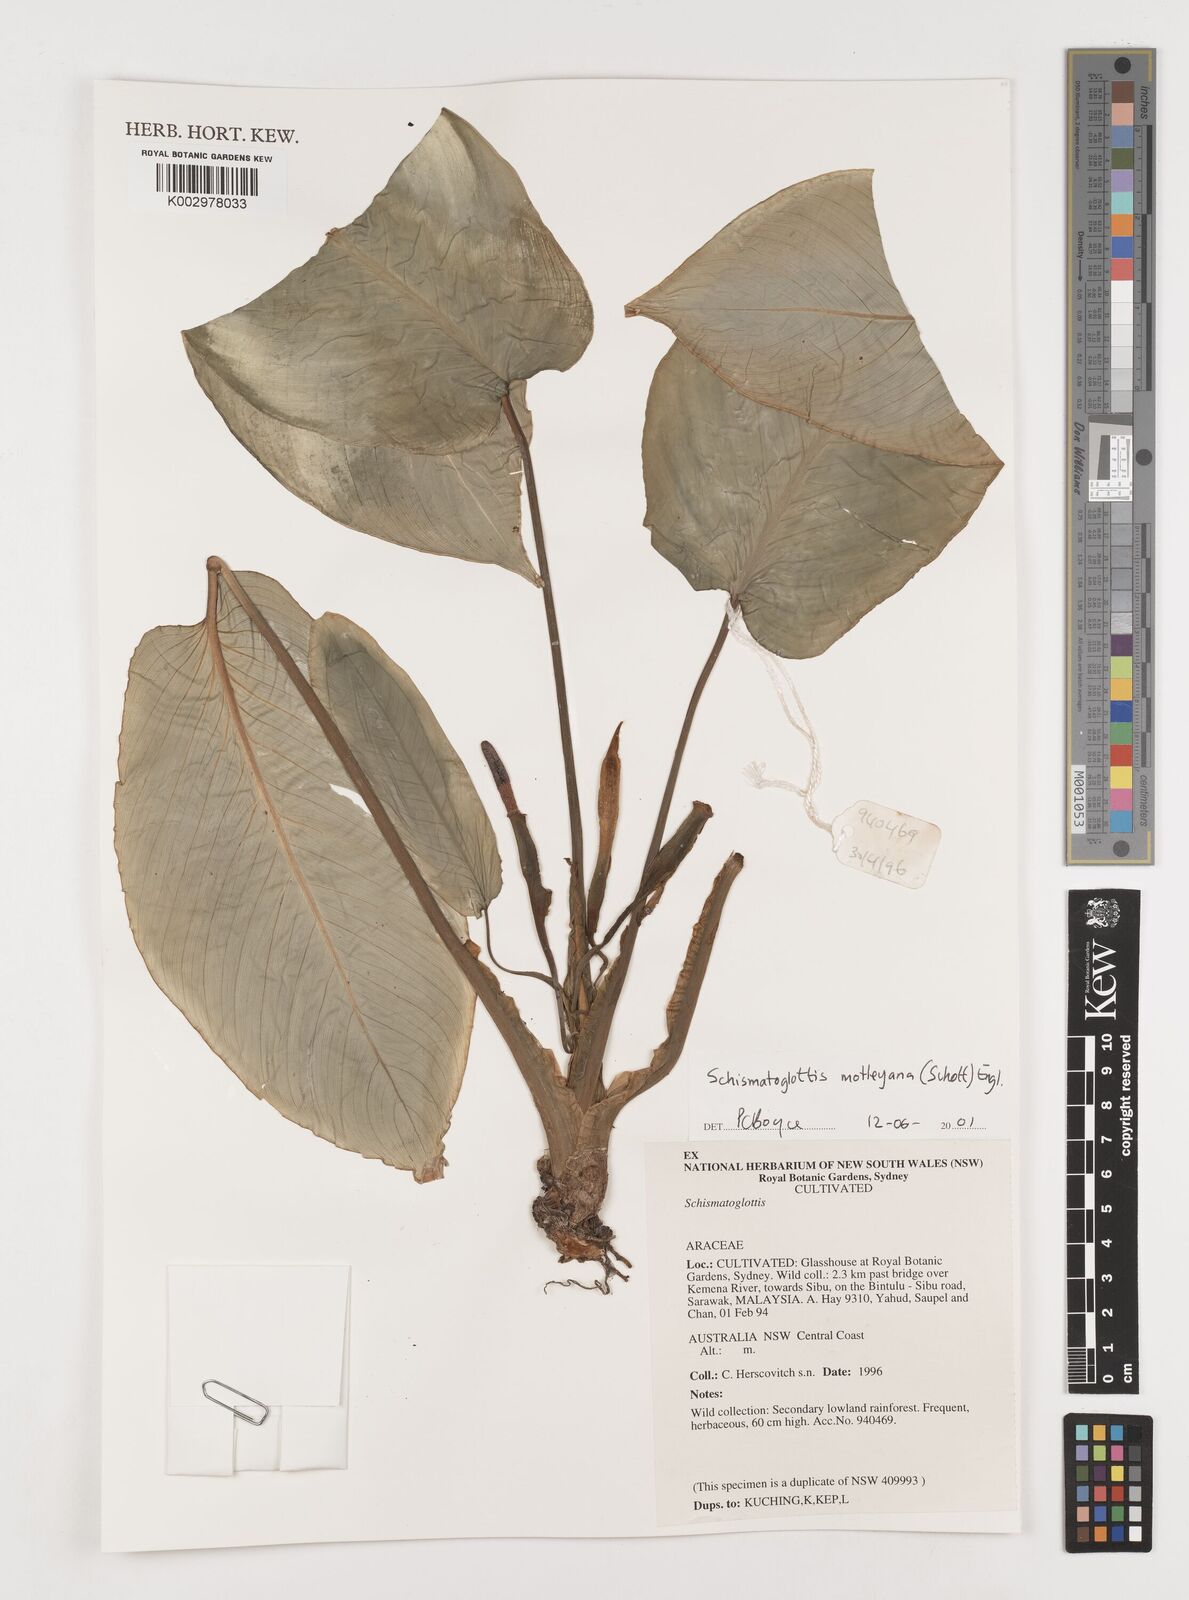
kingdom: Plantae
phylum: Tracheophyta
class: Liliopsida
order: Alismatales
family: Araceae
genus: Schismatoglottis
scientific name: Schismatoglottis motleyana
